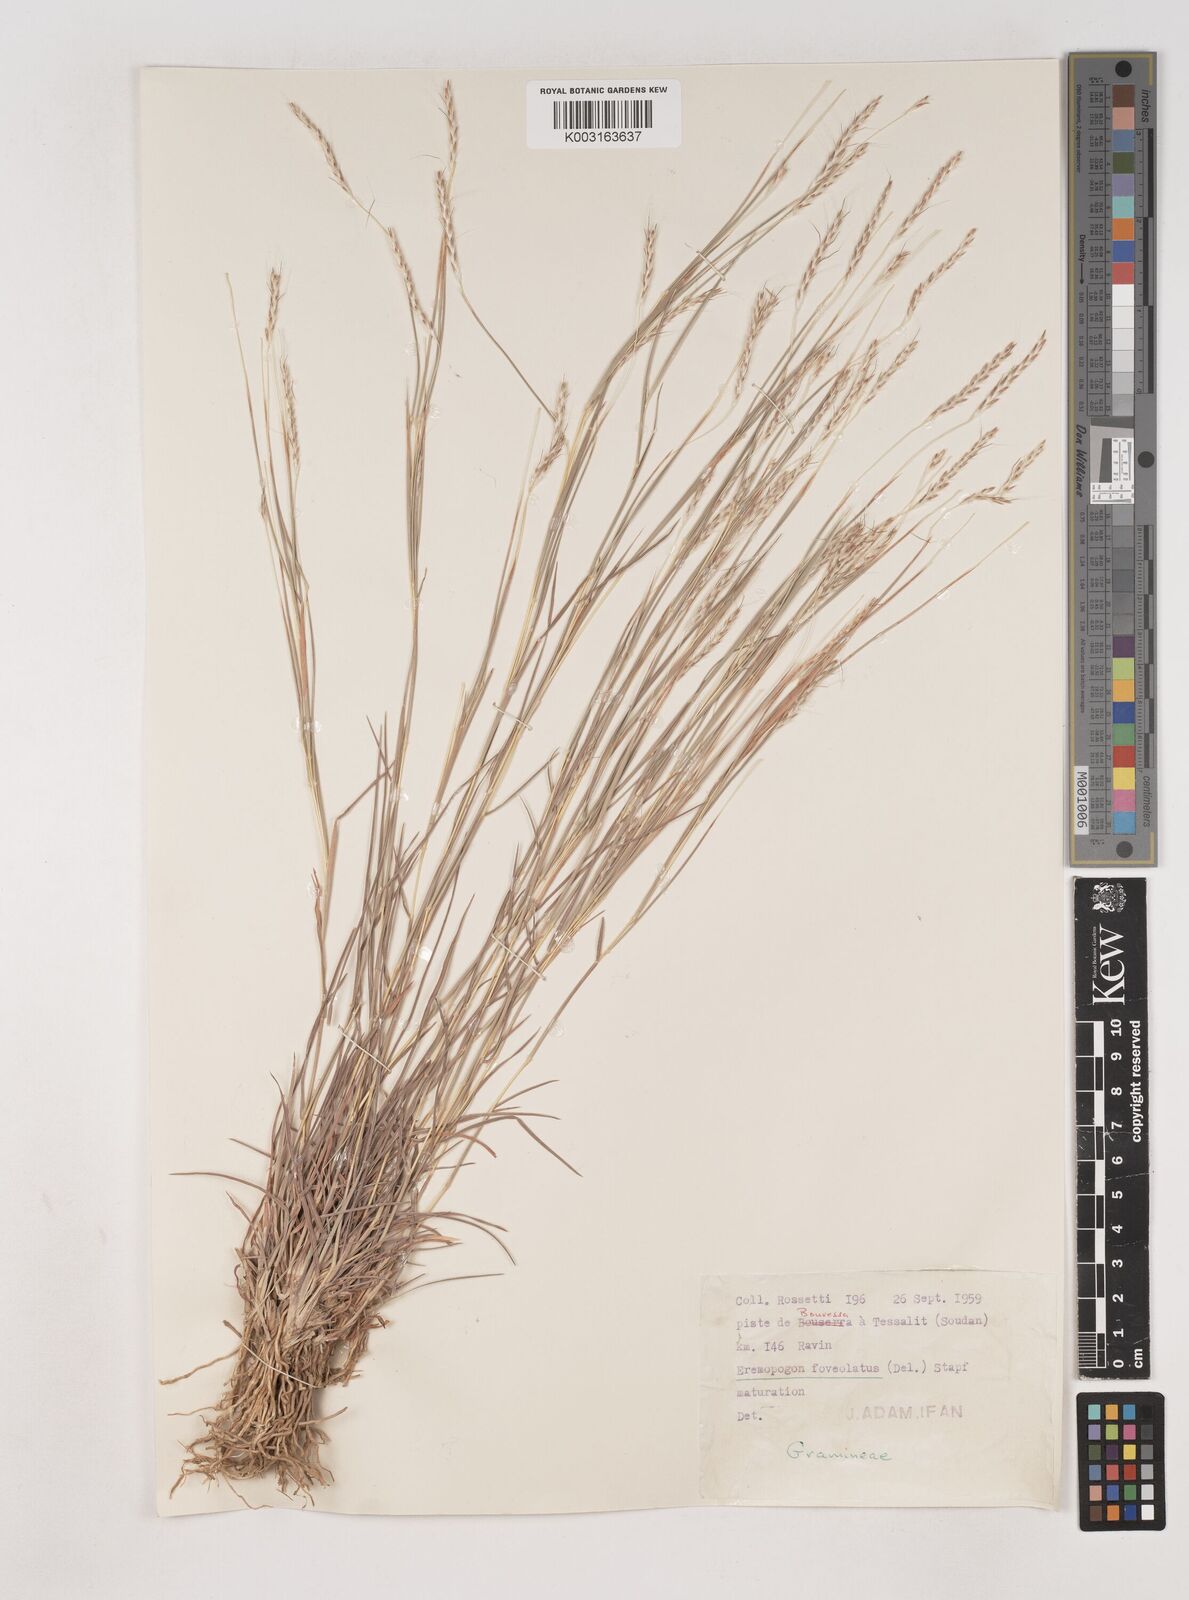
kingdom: Plantae
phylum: Tracheophyta
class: Liliopsida
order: Poales
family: Poaceae
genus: Dichanthium
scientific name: Dichanthium foveolatum
